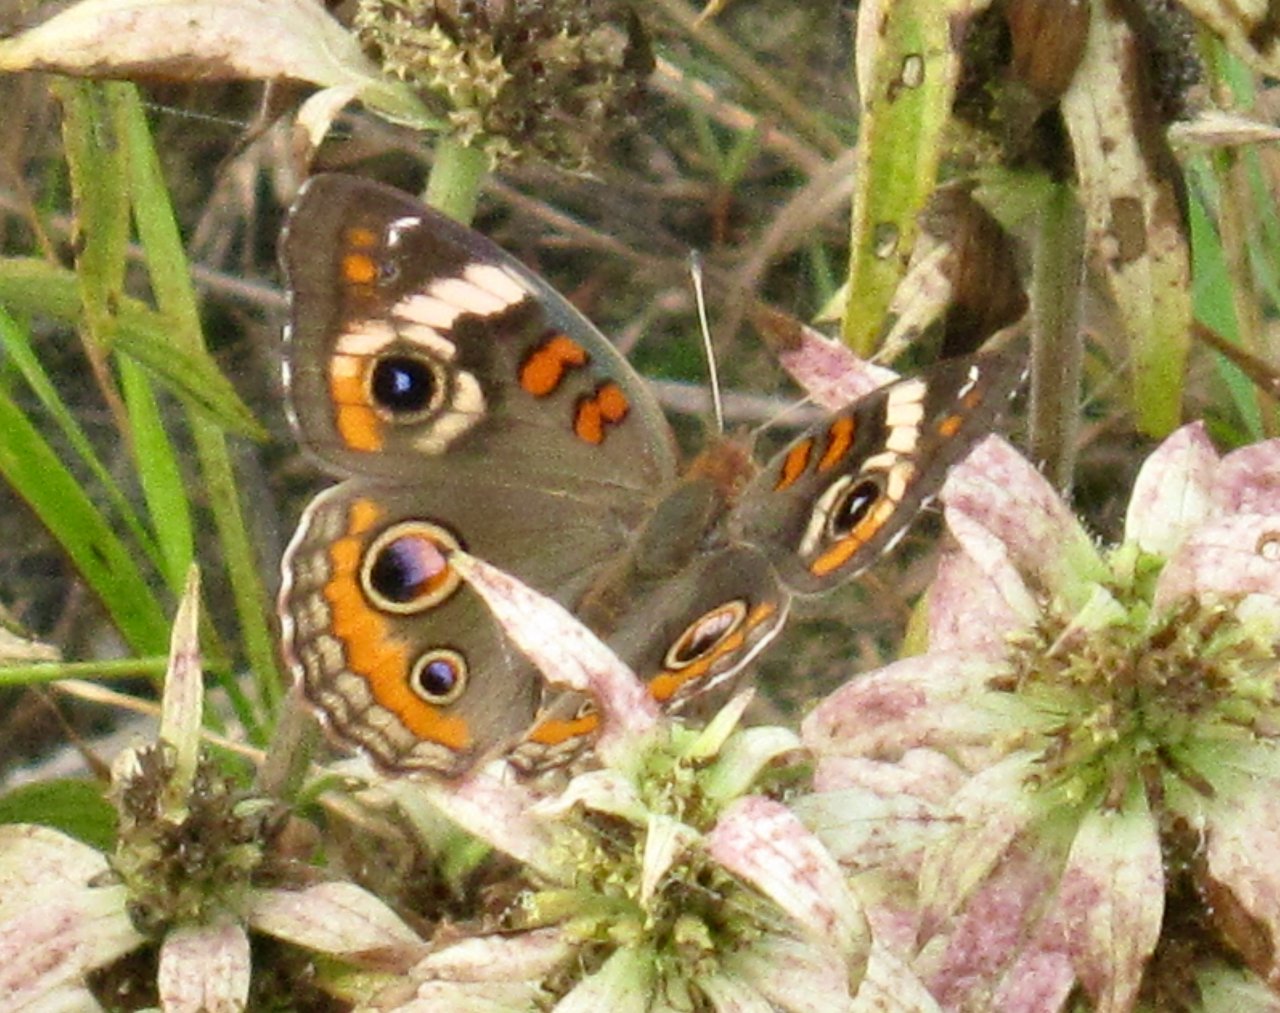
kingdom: Animalia
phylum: Arthropoda
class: Insecta
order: Lepidoptera
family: Nymphalidae
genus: Junonia
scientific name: Junonia coenia
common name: Common Buckeye
